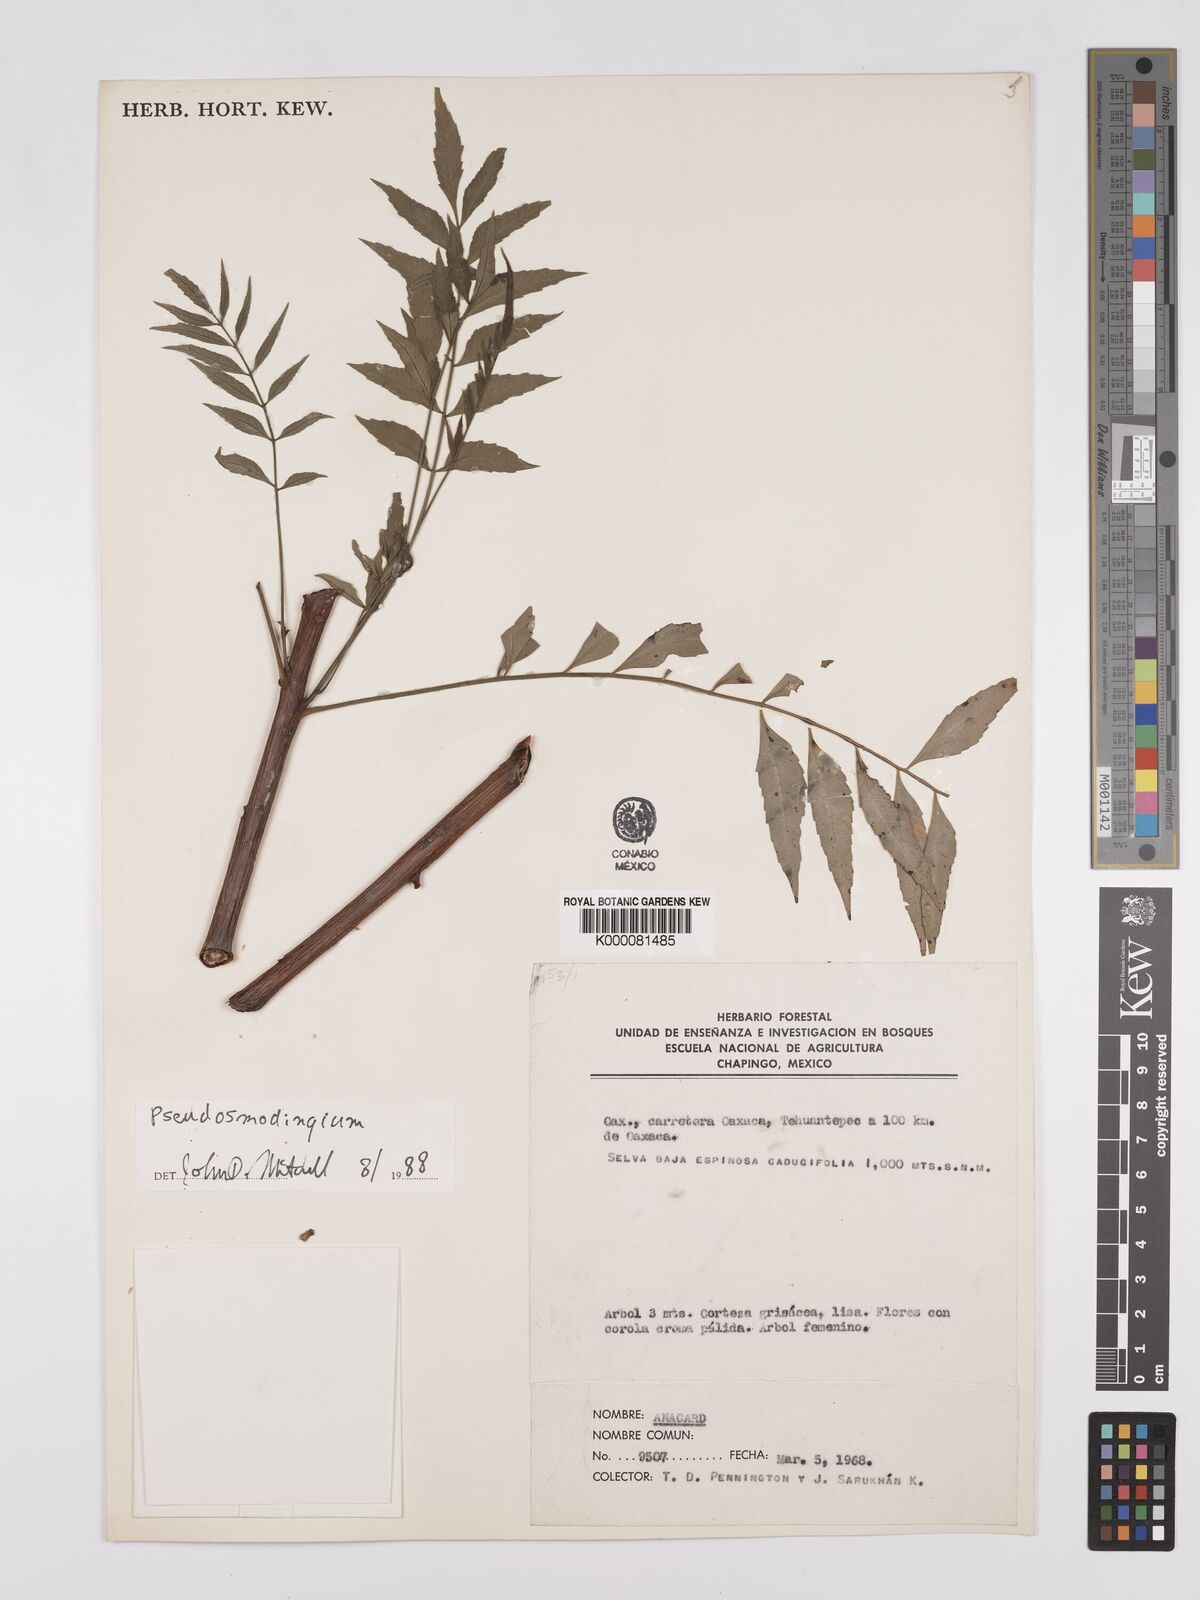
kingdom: Plantae
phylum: Tracheophyta
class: Magnoliopsida
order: Sapindales
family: Anacardiaceae
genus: Pseudosmodingium
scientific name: Pseudosmodingium
